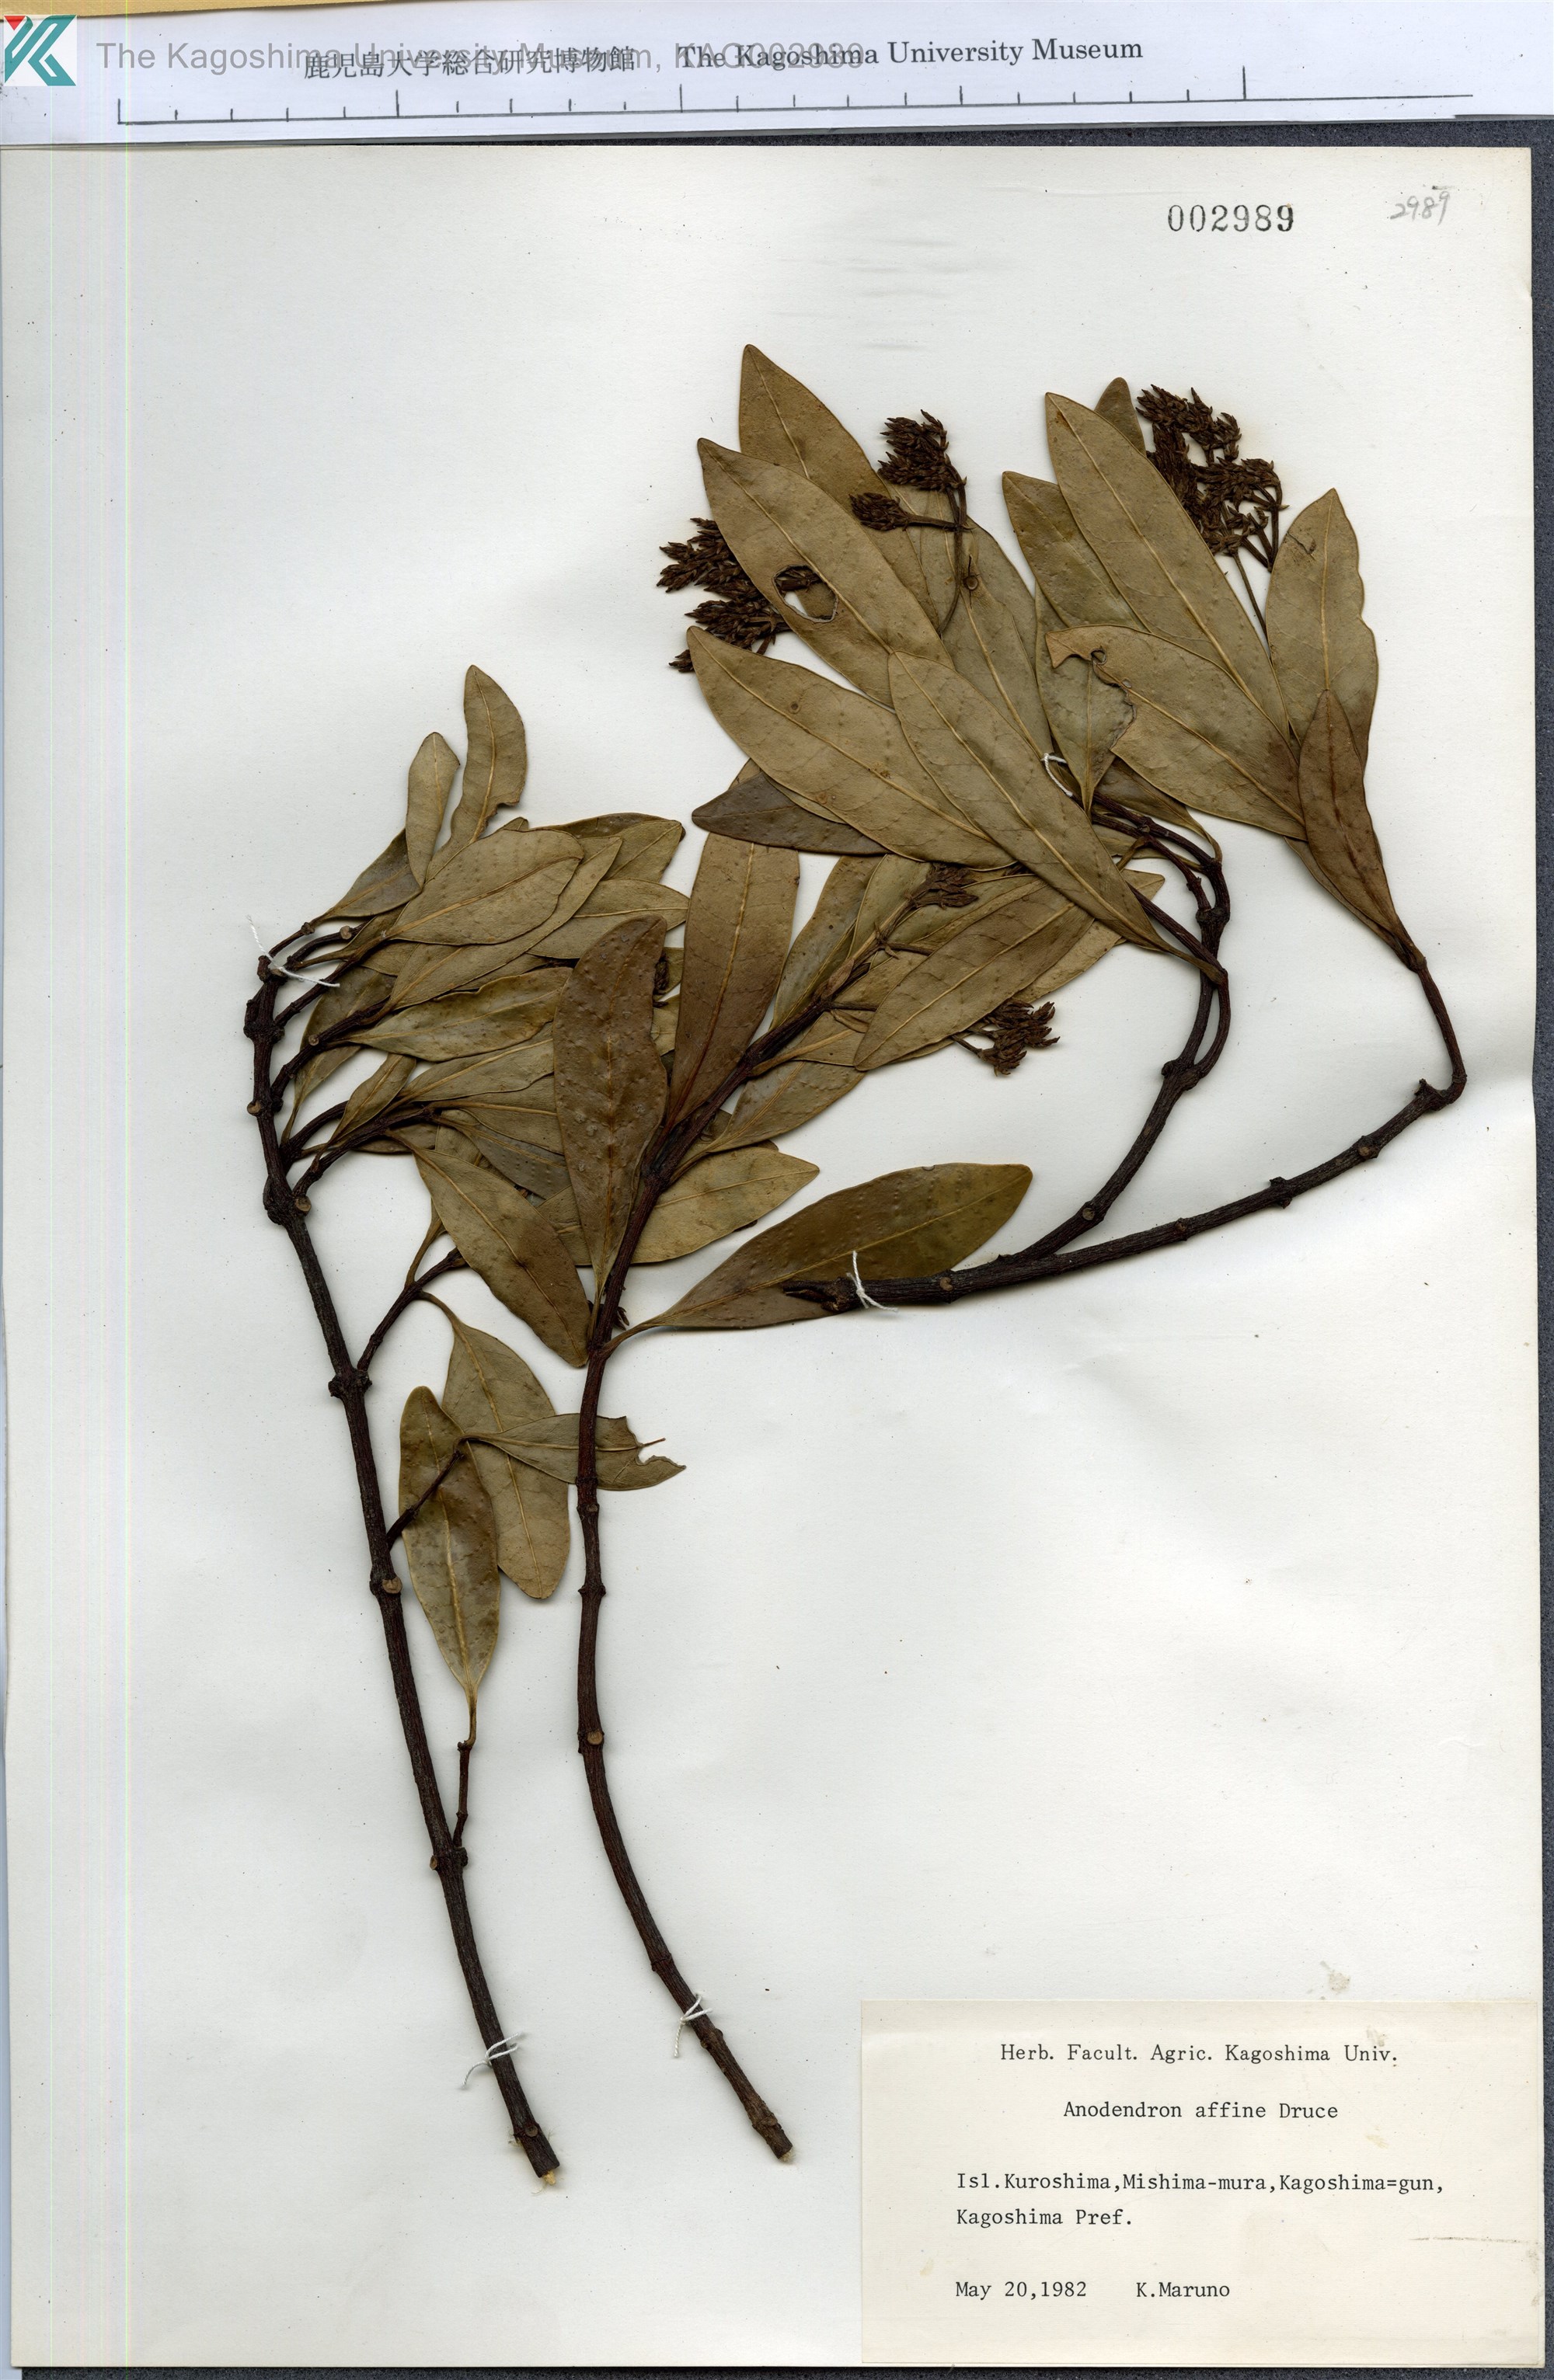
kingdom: Plantae
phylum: Tracheophyta
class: Magnoliopsida
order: Gentianales
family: Apocynaceae
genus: Anodendron
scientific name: Anodendron affine
